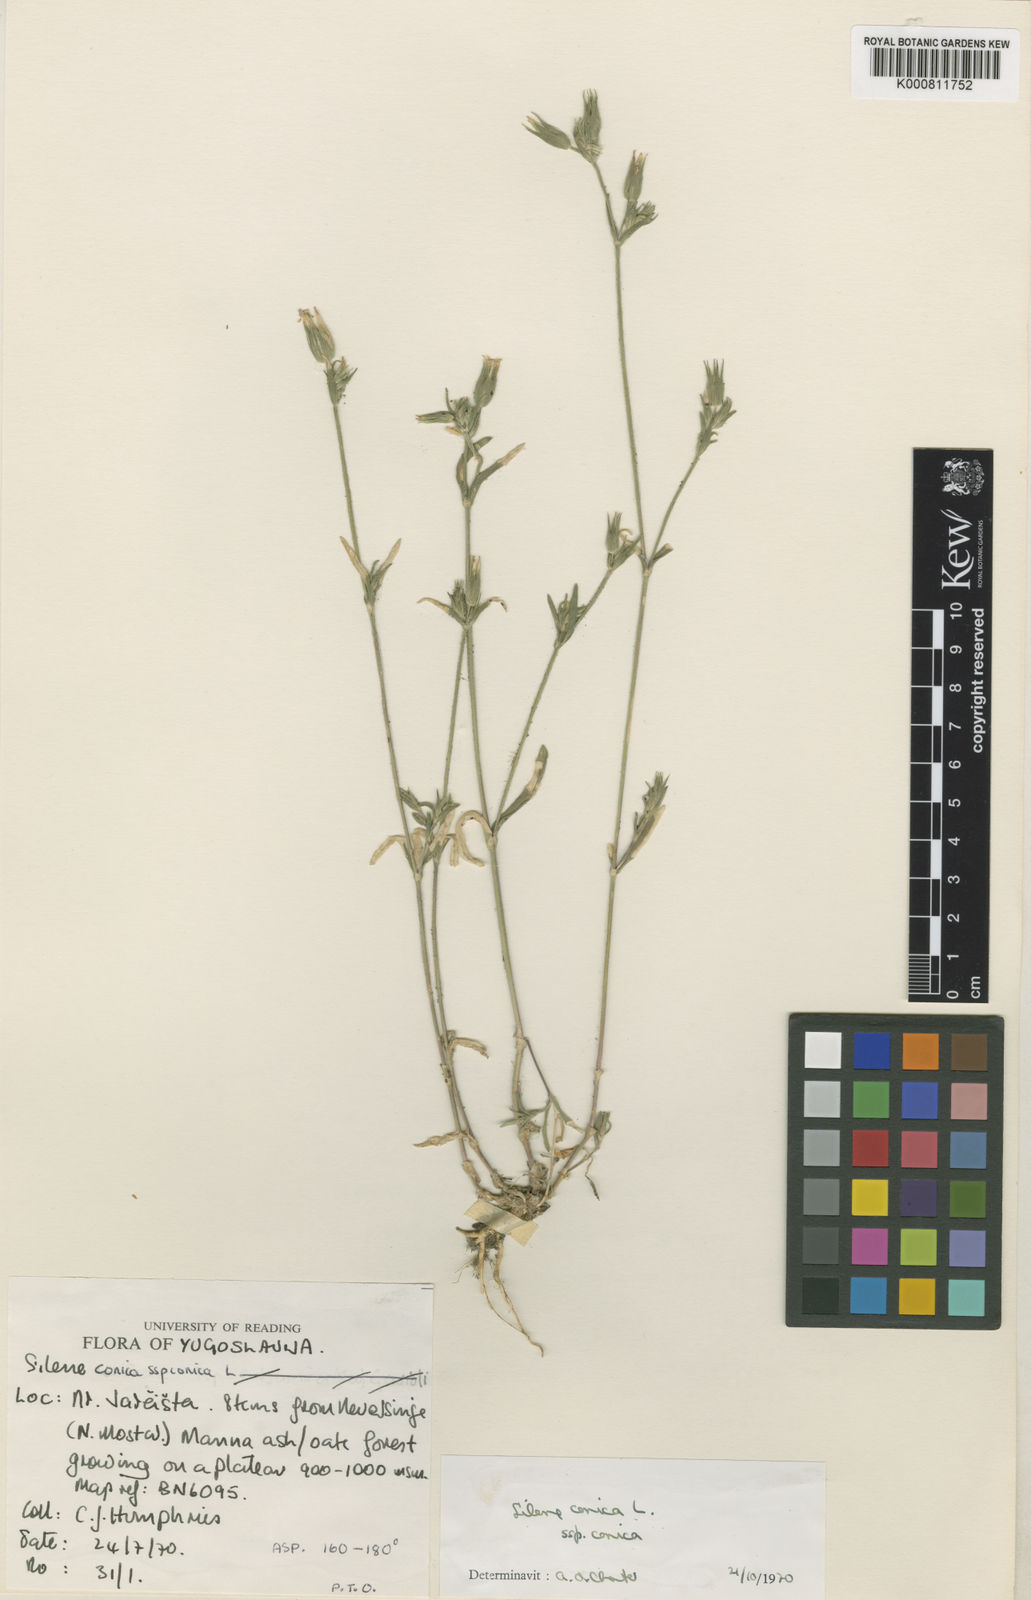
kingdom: Plantae
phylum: Tracheophyta
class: Magnoliopsida
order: Caryophyllales
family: Caryophyllaceae
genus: Silene
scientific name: Silene conica
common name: Sand catchfly
